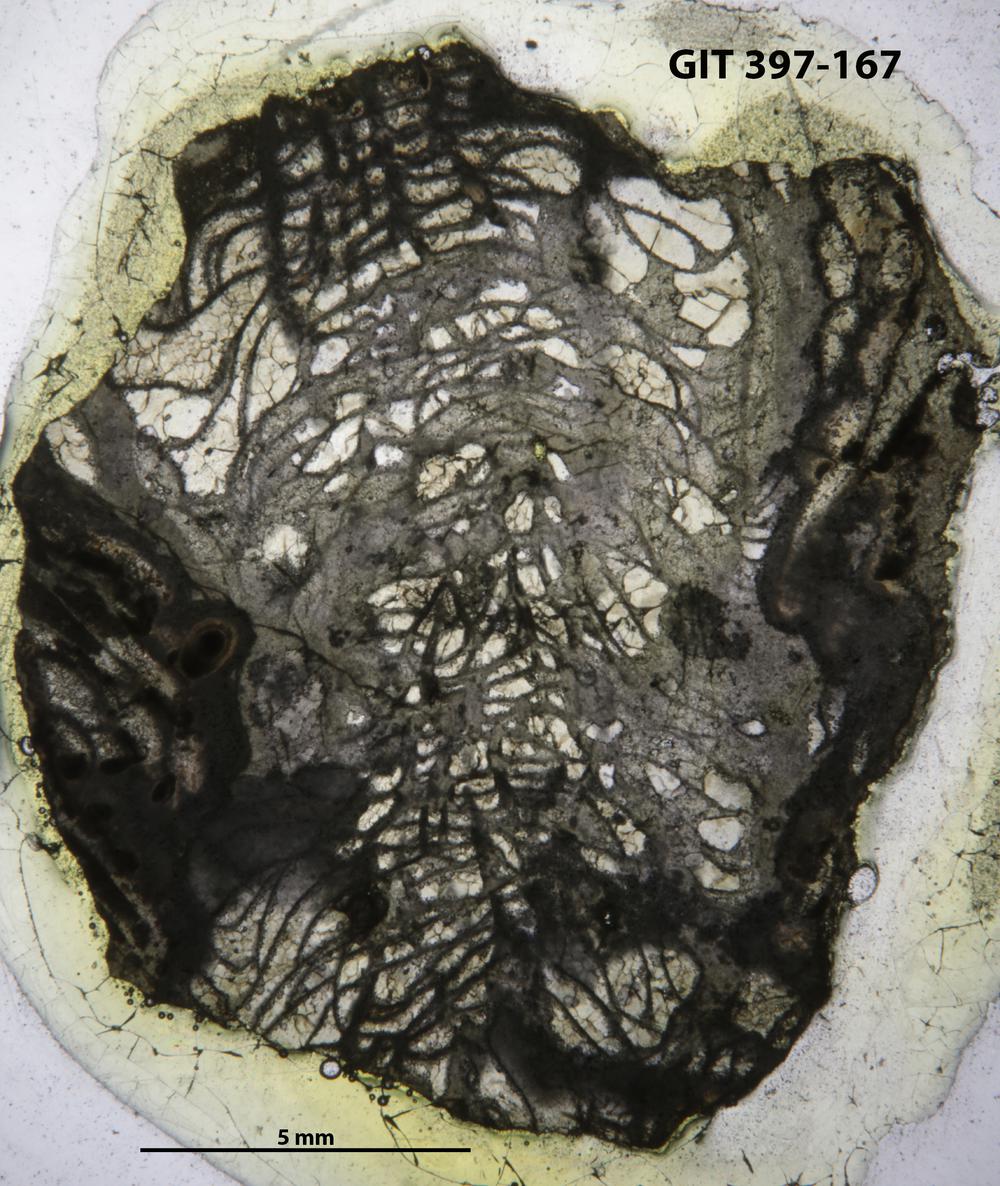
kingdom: Animalia
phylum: Cnidaria
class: Anthozoa
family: Paliphyllidae
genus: Paliphyllum
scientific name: Paliphyllum soshkinae
